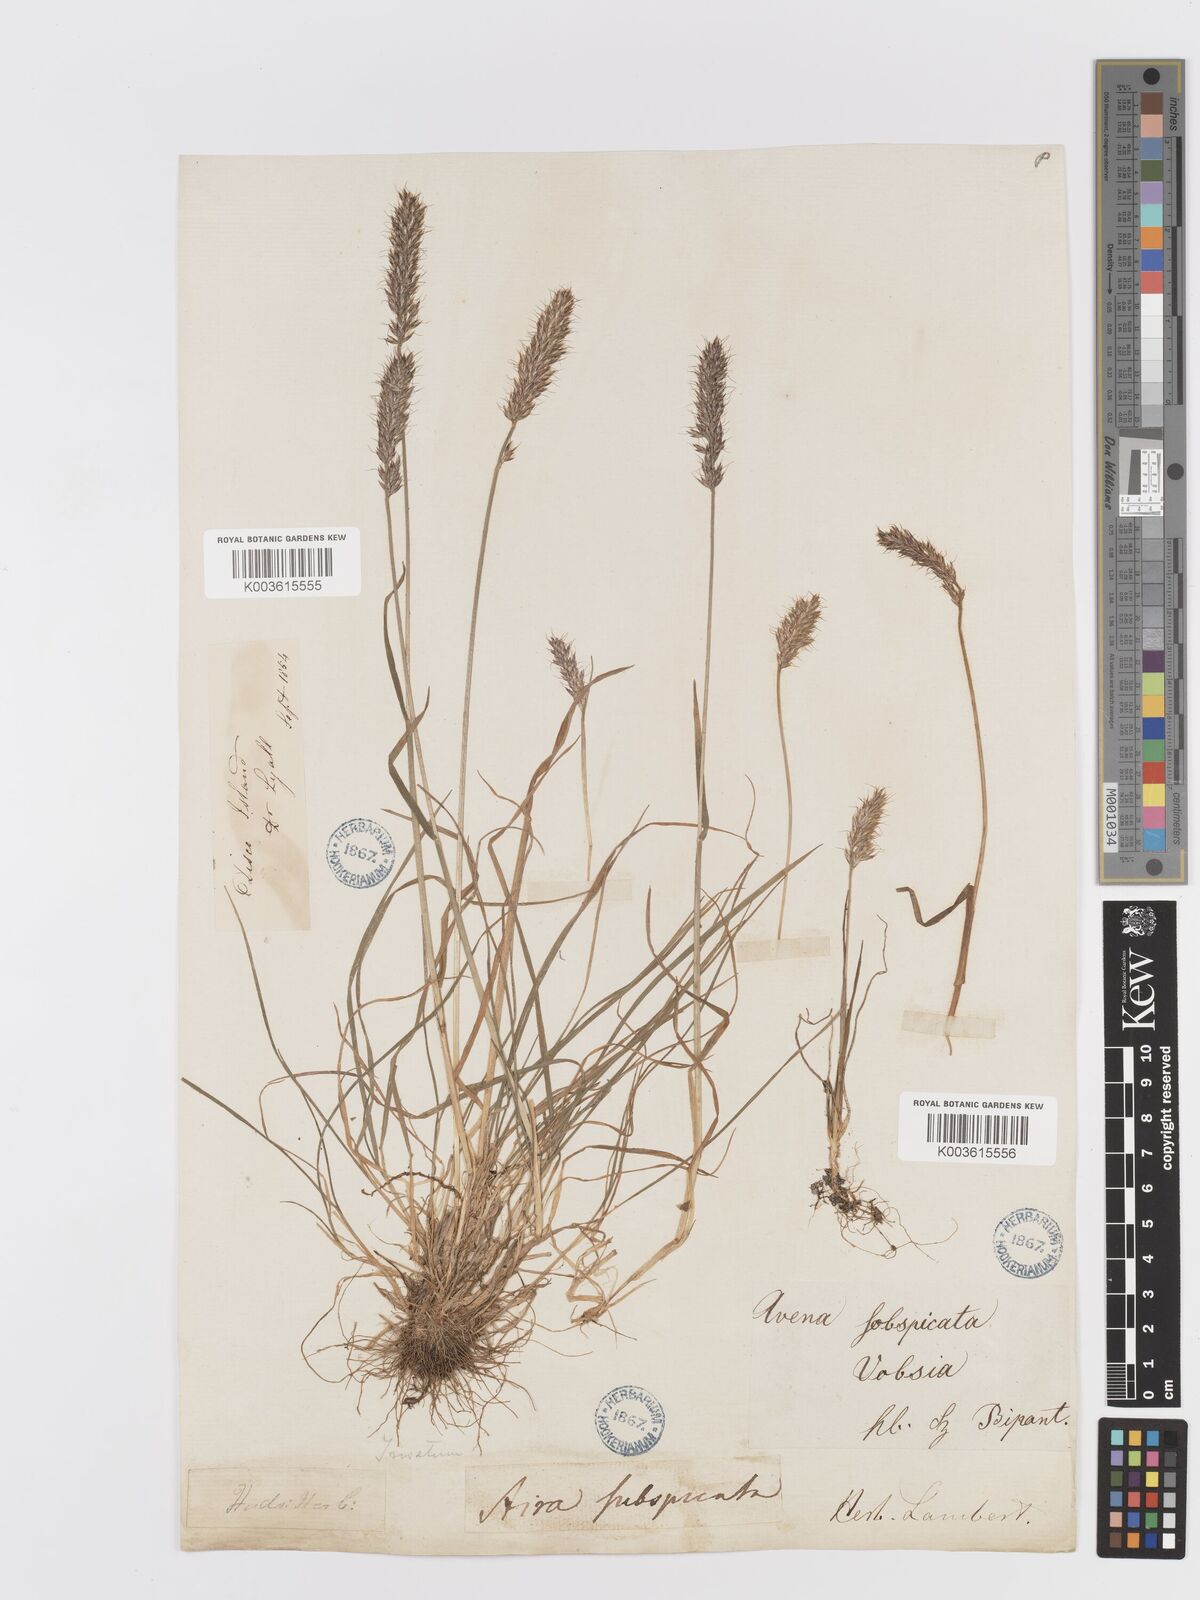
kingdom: Plantae
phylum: Tracheophyta
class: Liliopsida
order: Poales
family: Poaceae
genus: Koeleria
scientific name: Koeleria spicata
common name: Mountain trisetum
